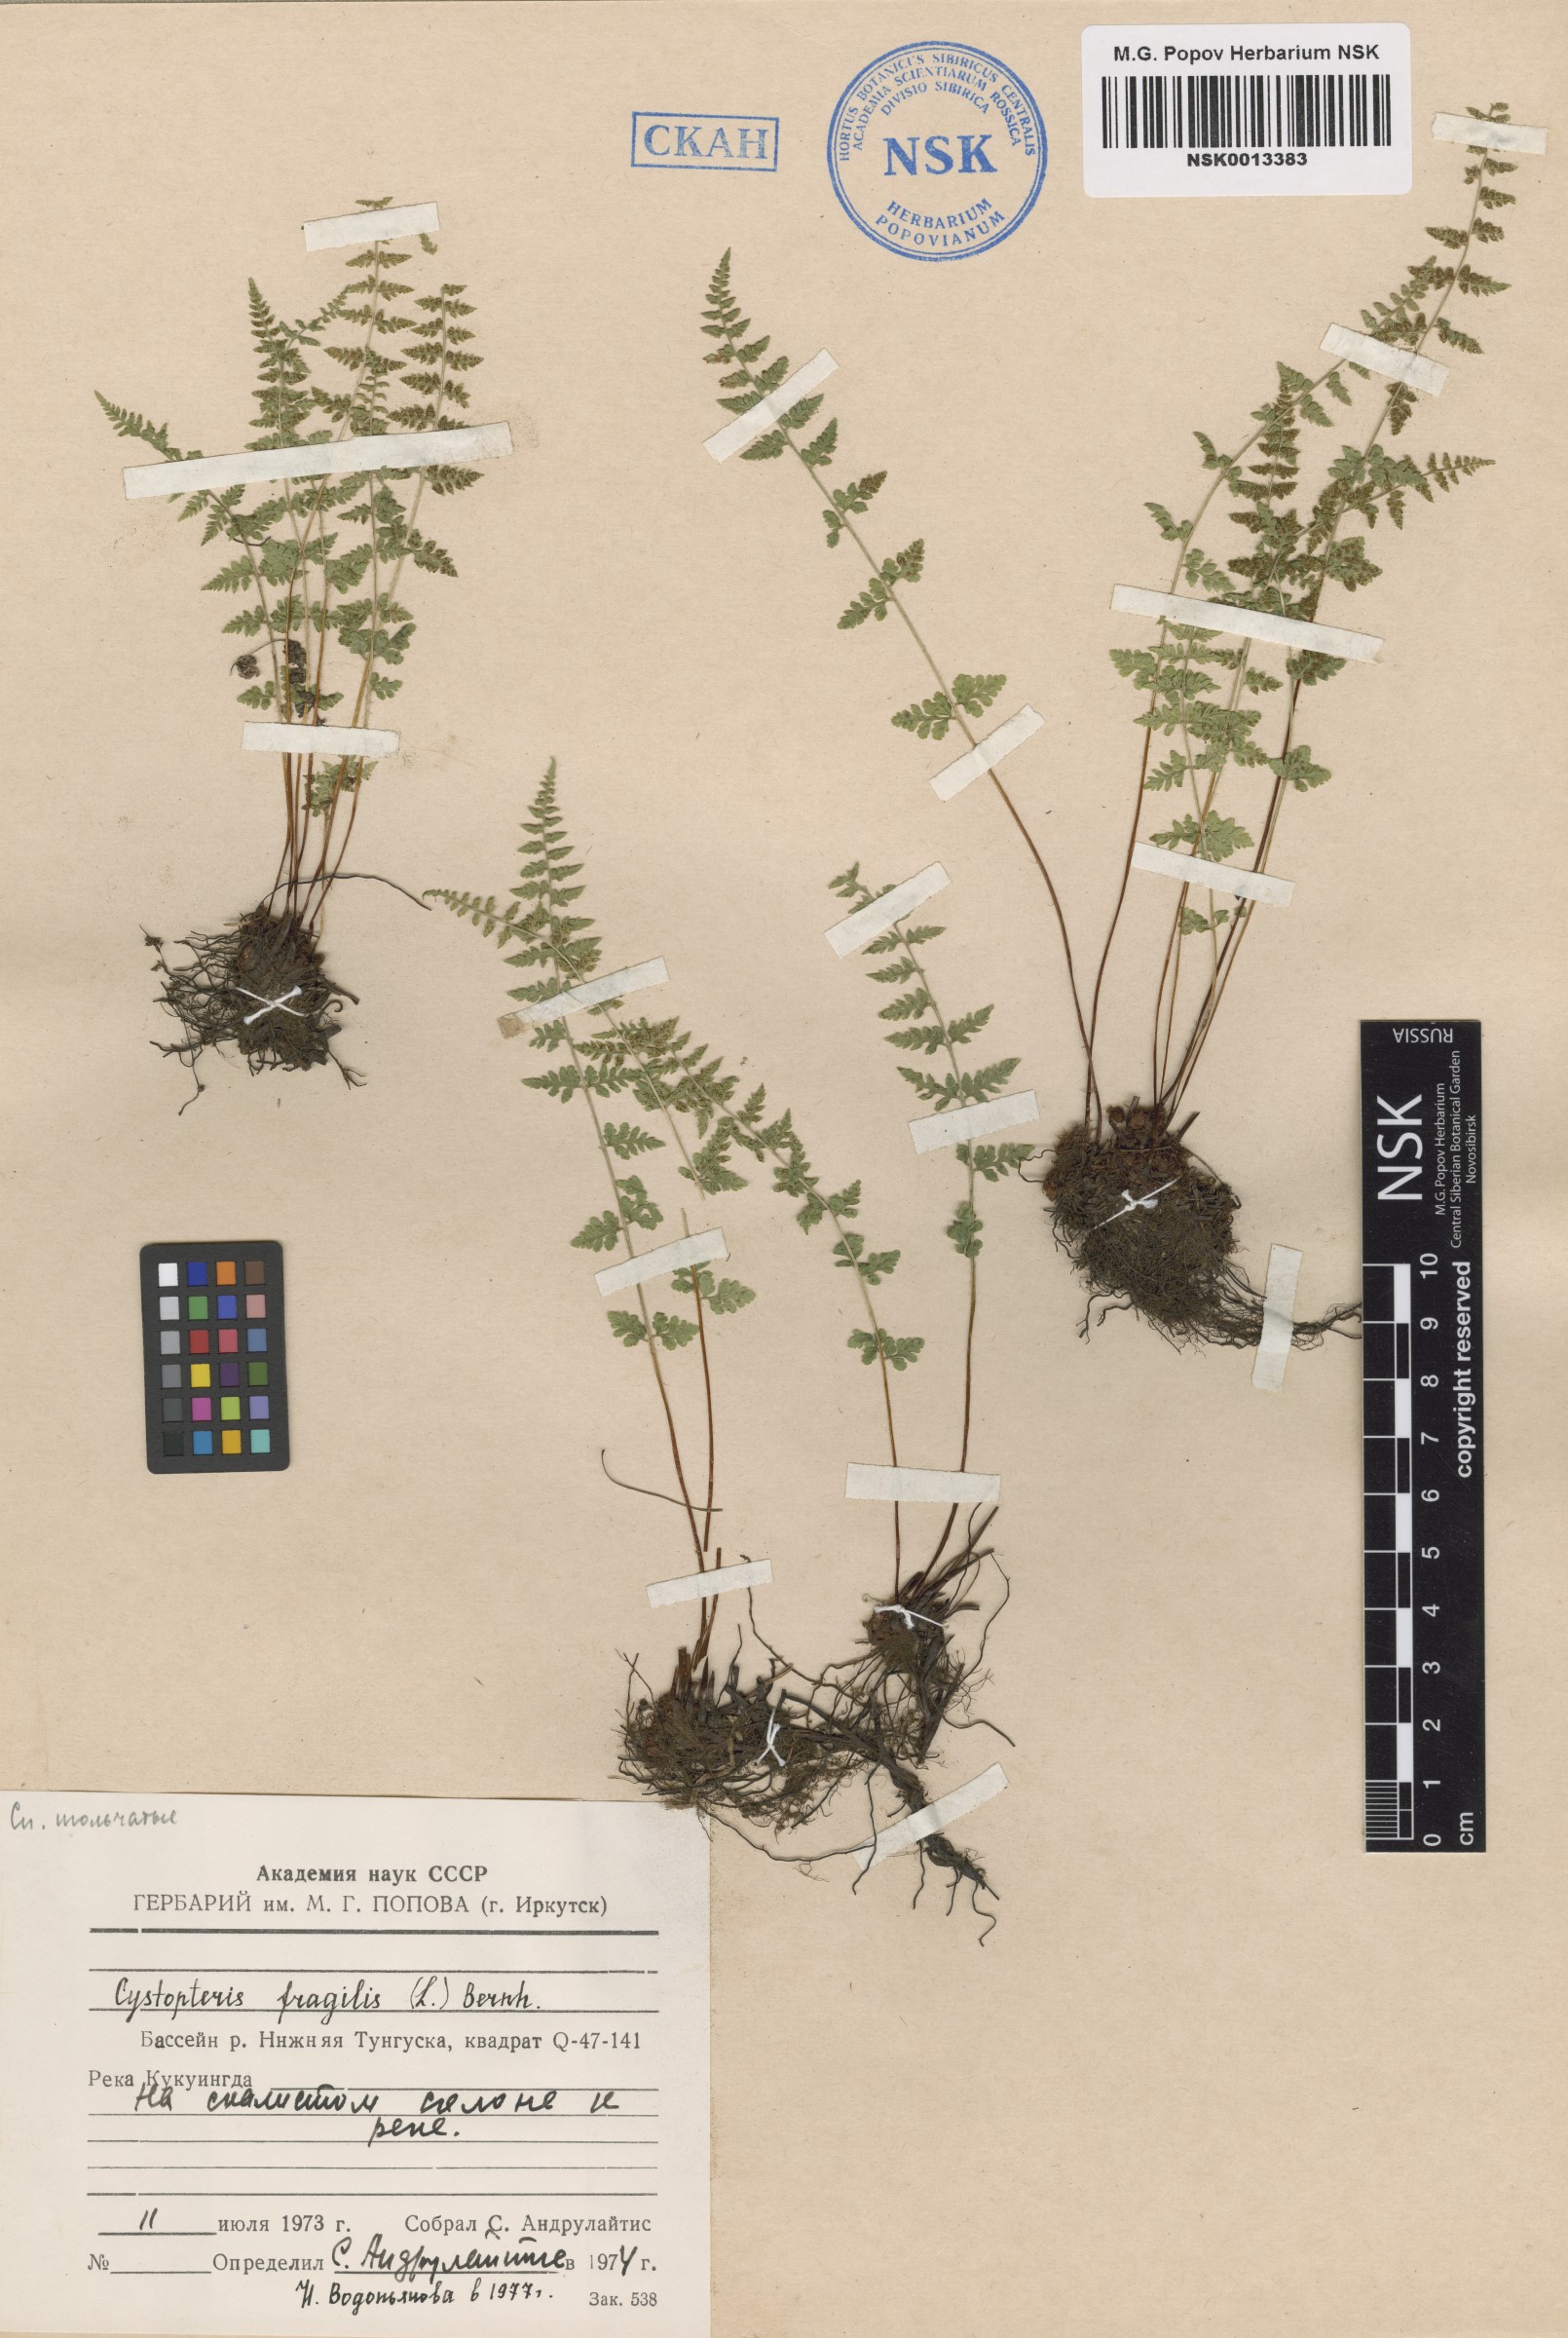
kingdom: Plantae
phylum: Tracheophyta
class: Polypodiopsida
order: Polypodiales
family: Cystopteridaceae
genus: Cystopteris
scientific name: Cystopteris fragilis
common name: Brittle bladder fern
